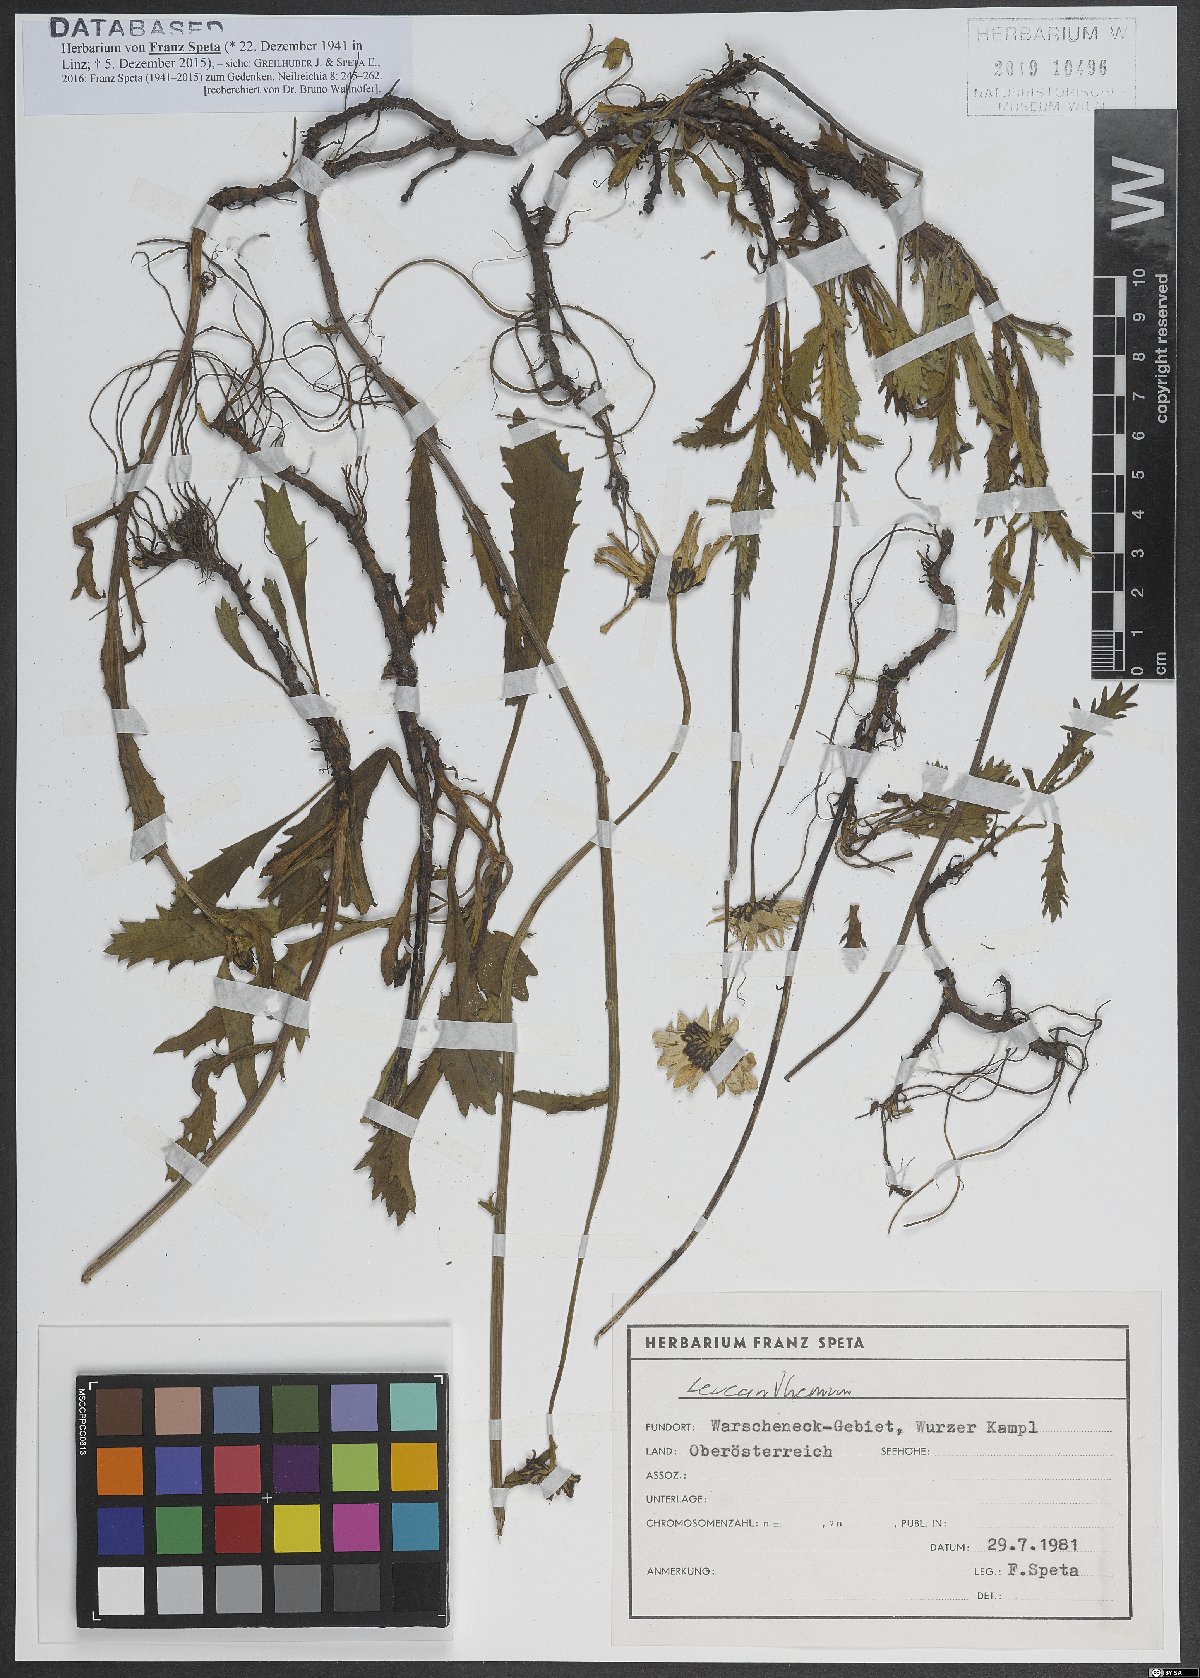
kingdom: Plantae
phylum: Tracheophyta
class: Magnoliopsida
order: Asterales
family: Asteraceae
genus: Leucanthemum
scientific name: Leucanthemum
